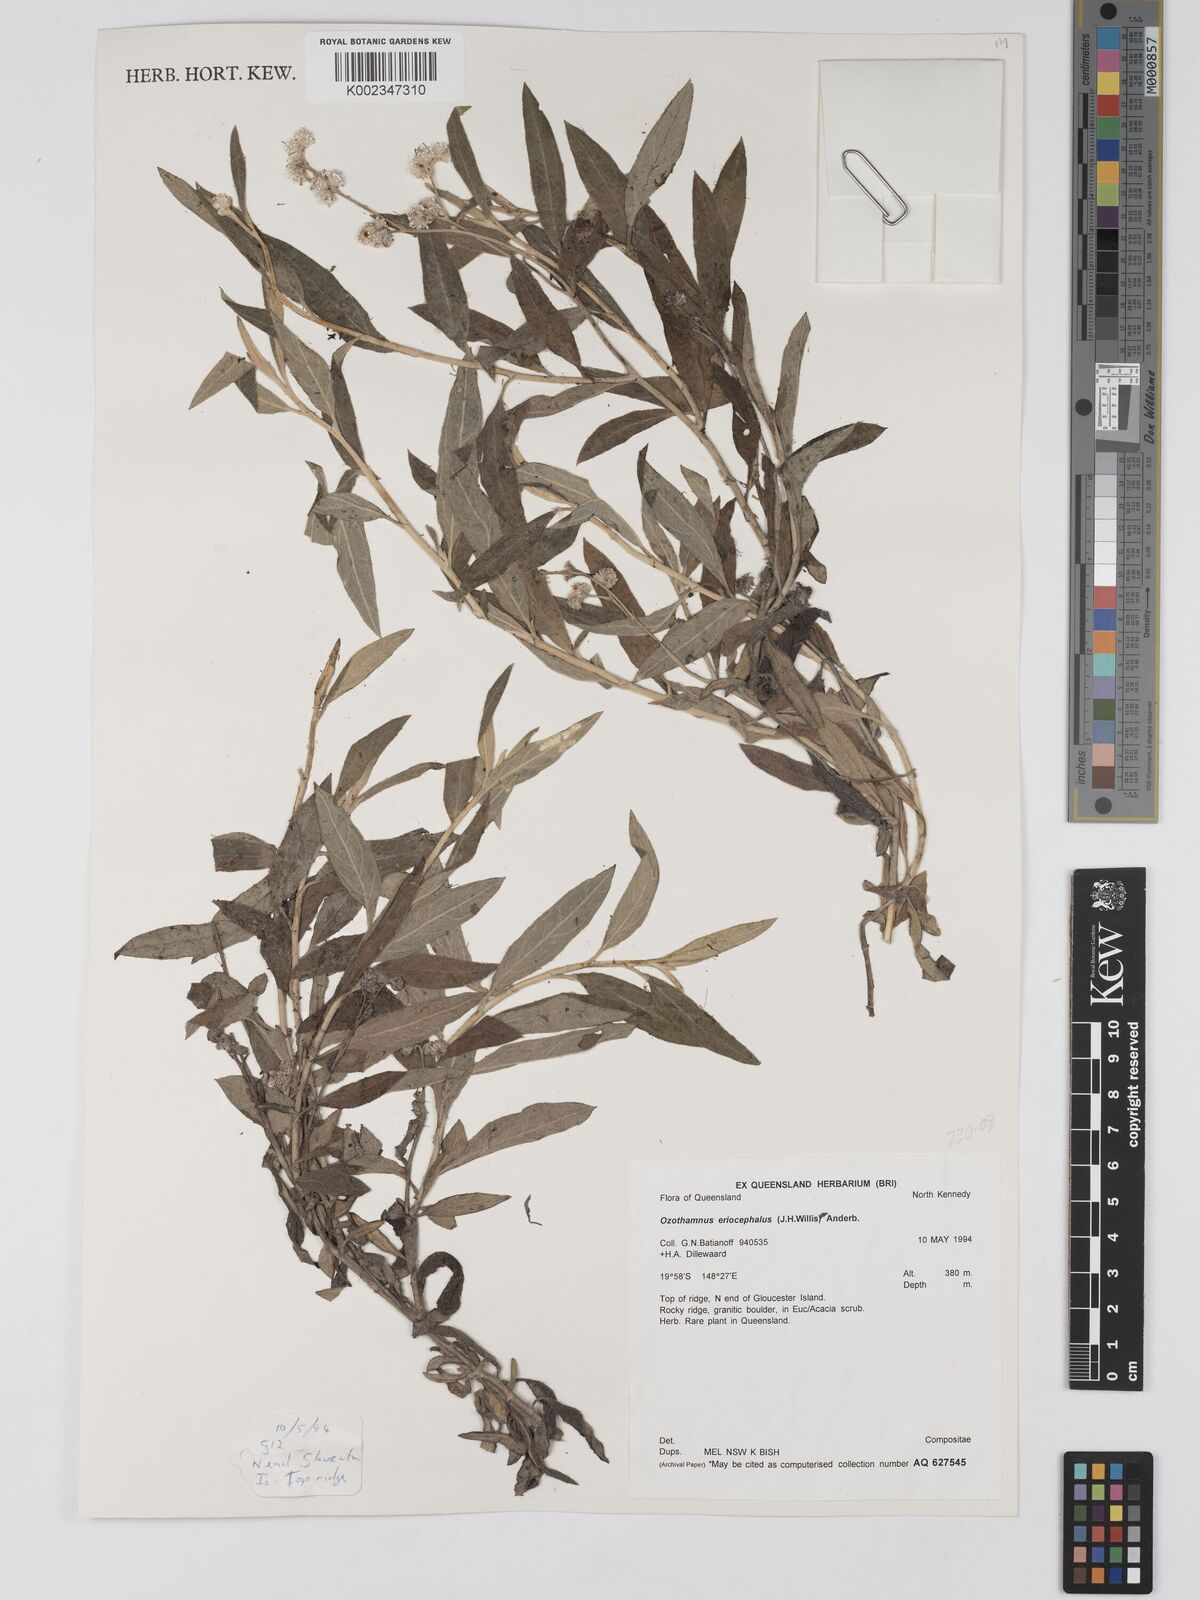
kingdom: Plantae
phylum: Tracheophyta
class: Magnoliopsida
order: Asterales
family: Asteraceae
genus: Ozothamnus
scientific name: Ozothamnus eriocephalus
